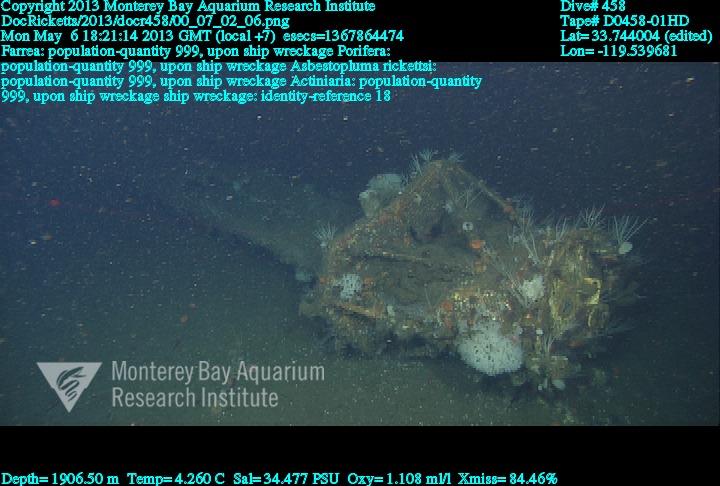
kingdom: Animalia
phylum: Porifera
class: Demospongiae
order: Poecilosclerida
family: Cladorhizidae
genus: Asbestopluma
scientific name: Asbestopluma rickettsi
